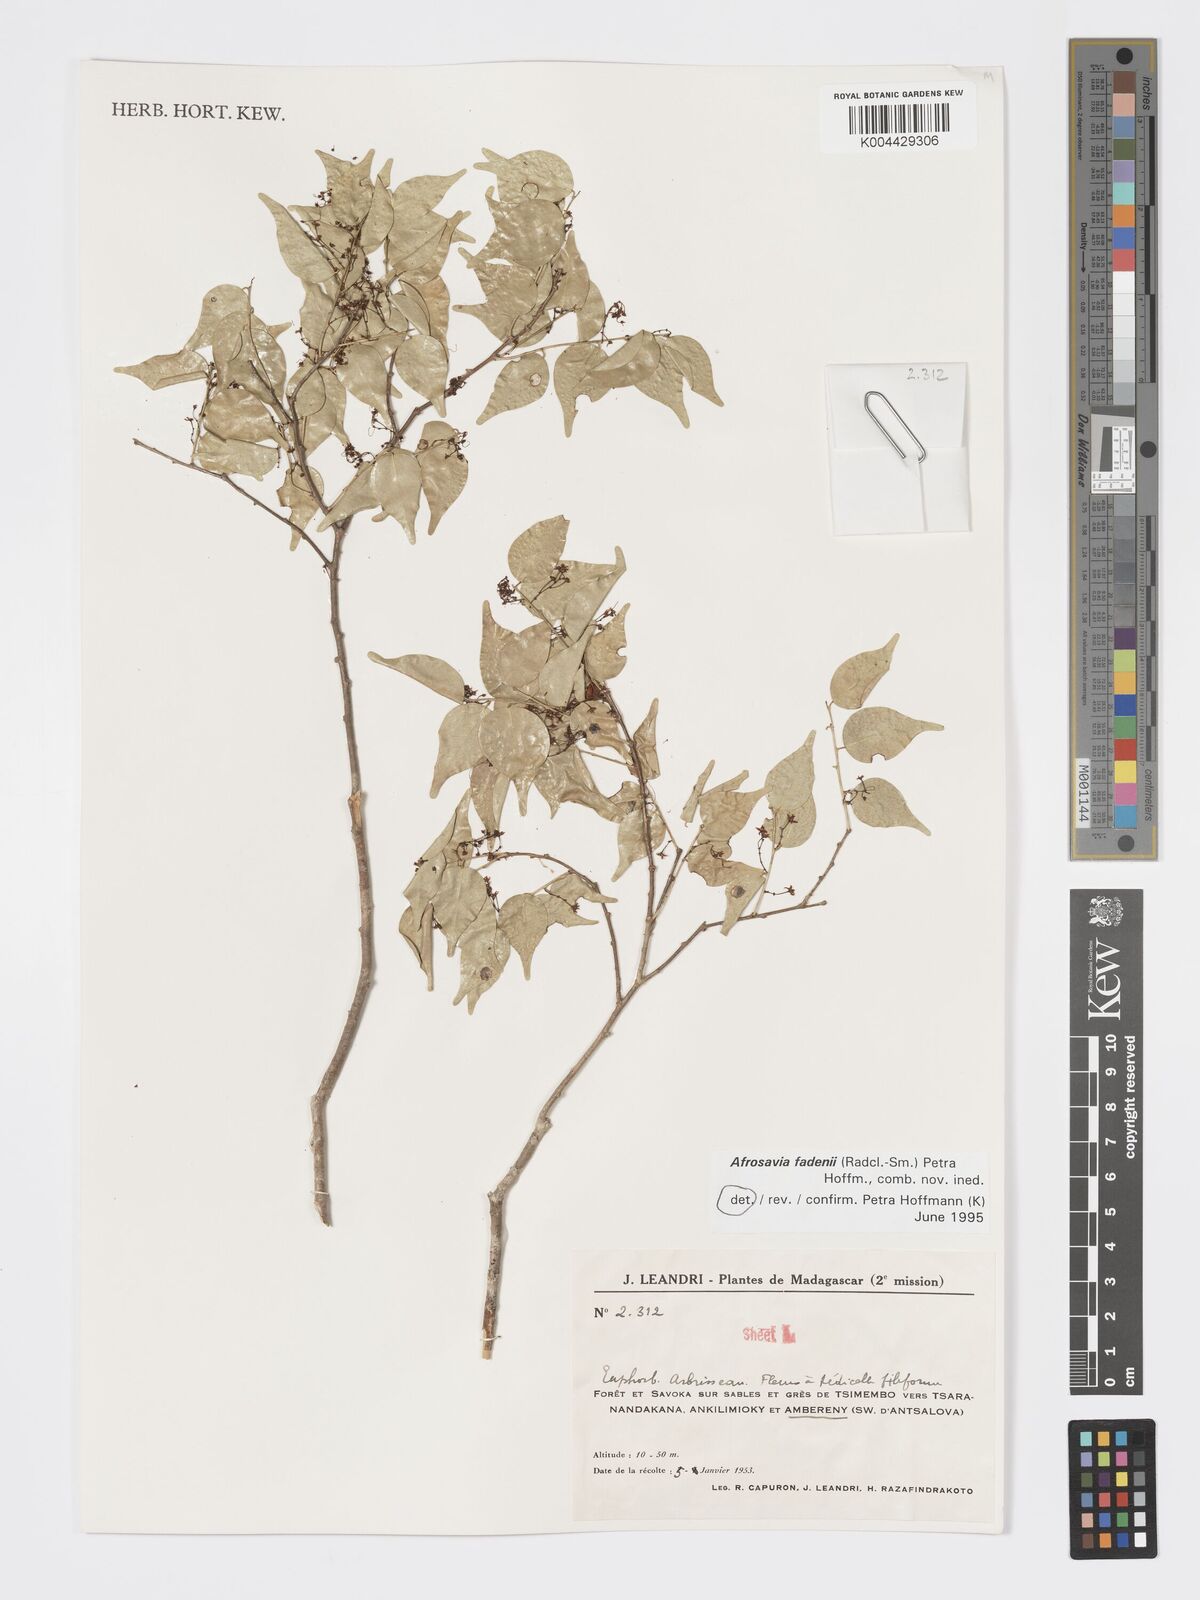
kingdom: Plantae
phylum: Tracheophyta
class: Magnoliopsida
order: Malpighiales
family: Phyllanthaceae
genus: Wielandia
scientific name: Wielandia fadenii
